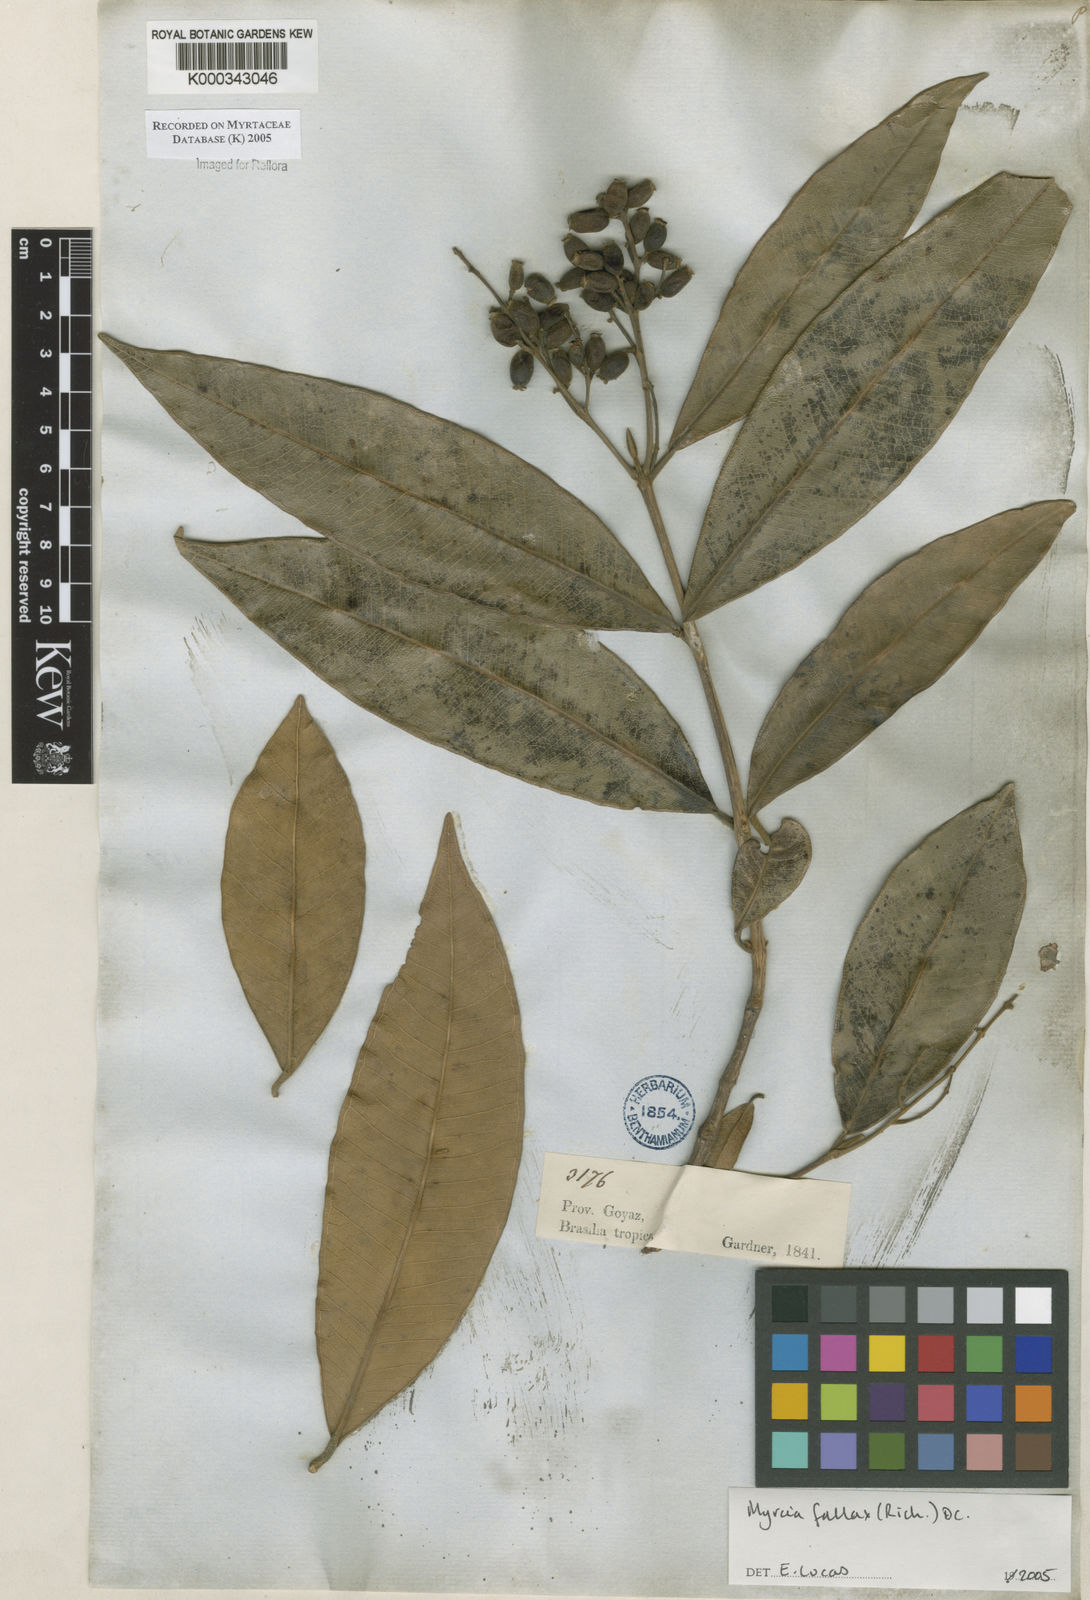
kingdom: Plantae
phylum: Tracheophyta
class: Magnoliopsida
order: Myrtales
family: Myrtaceae
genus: Myrcia
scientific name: Myrcia splendens
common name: Surinam cherry
